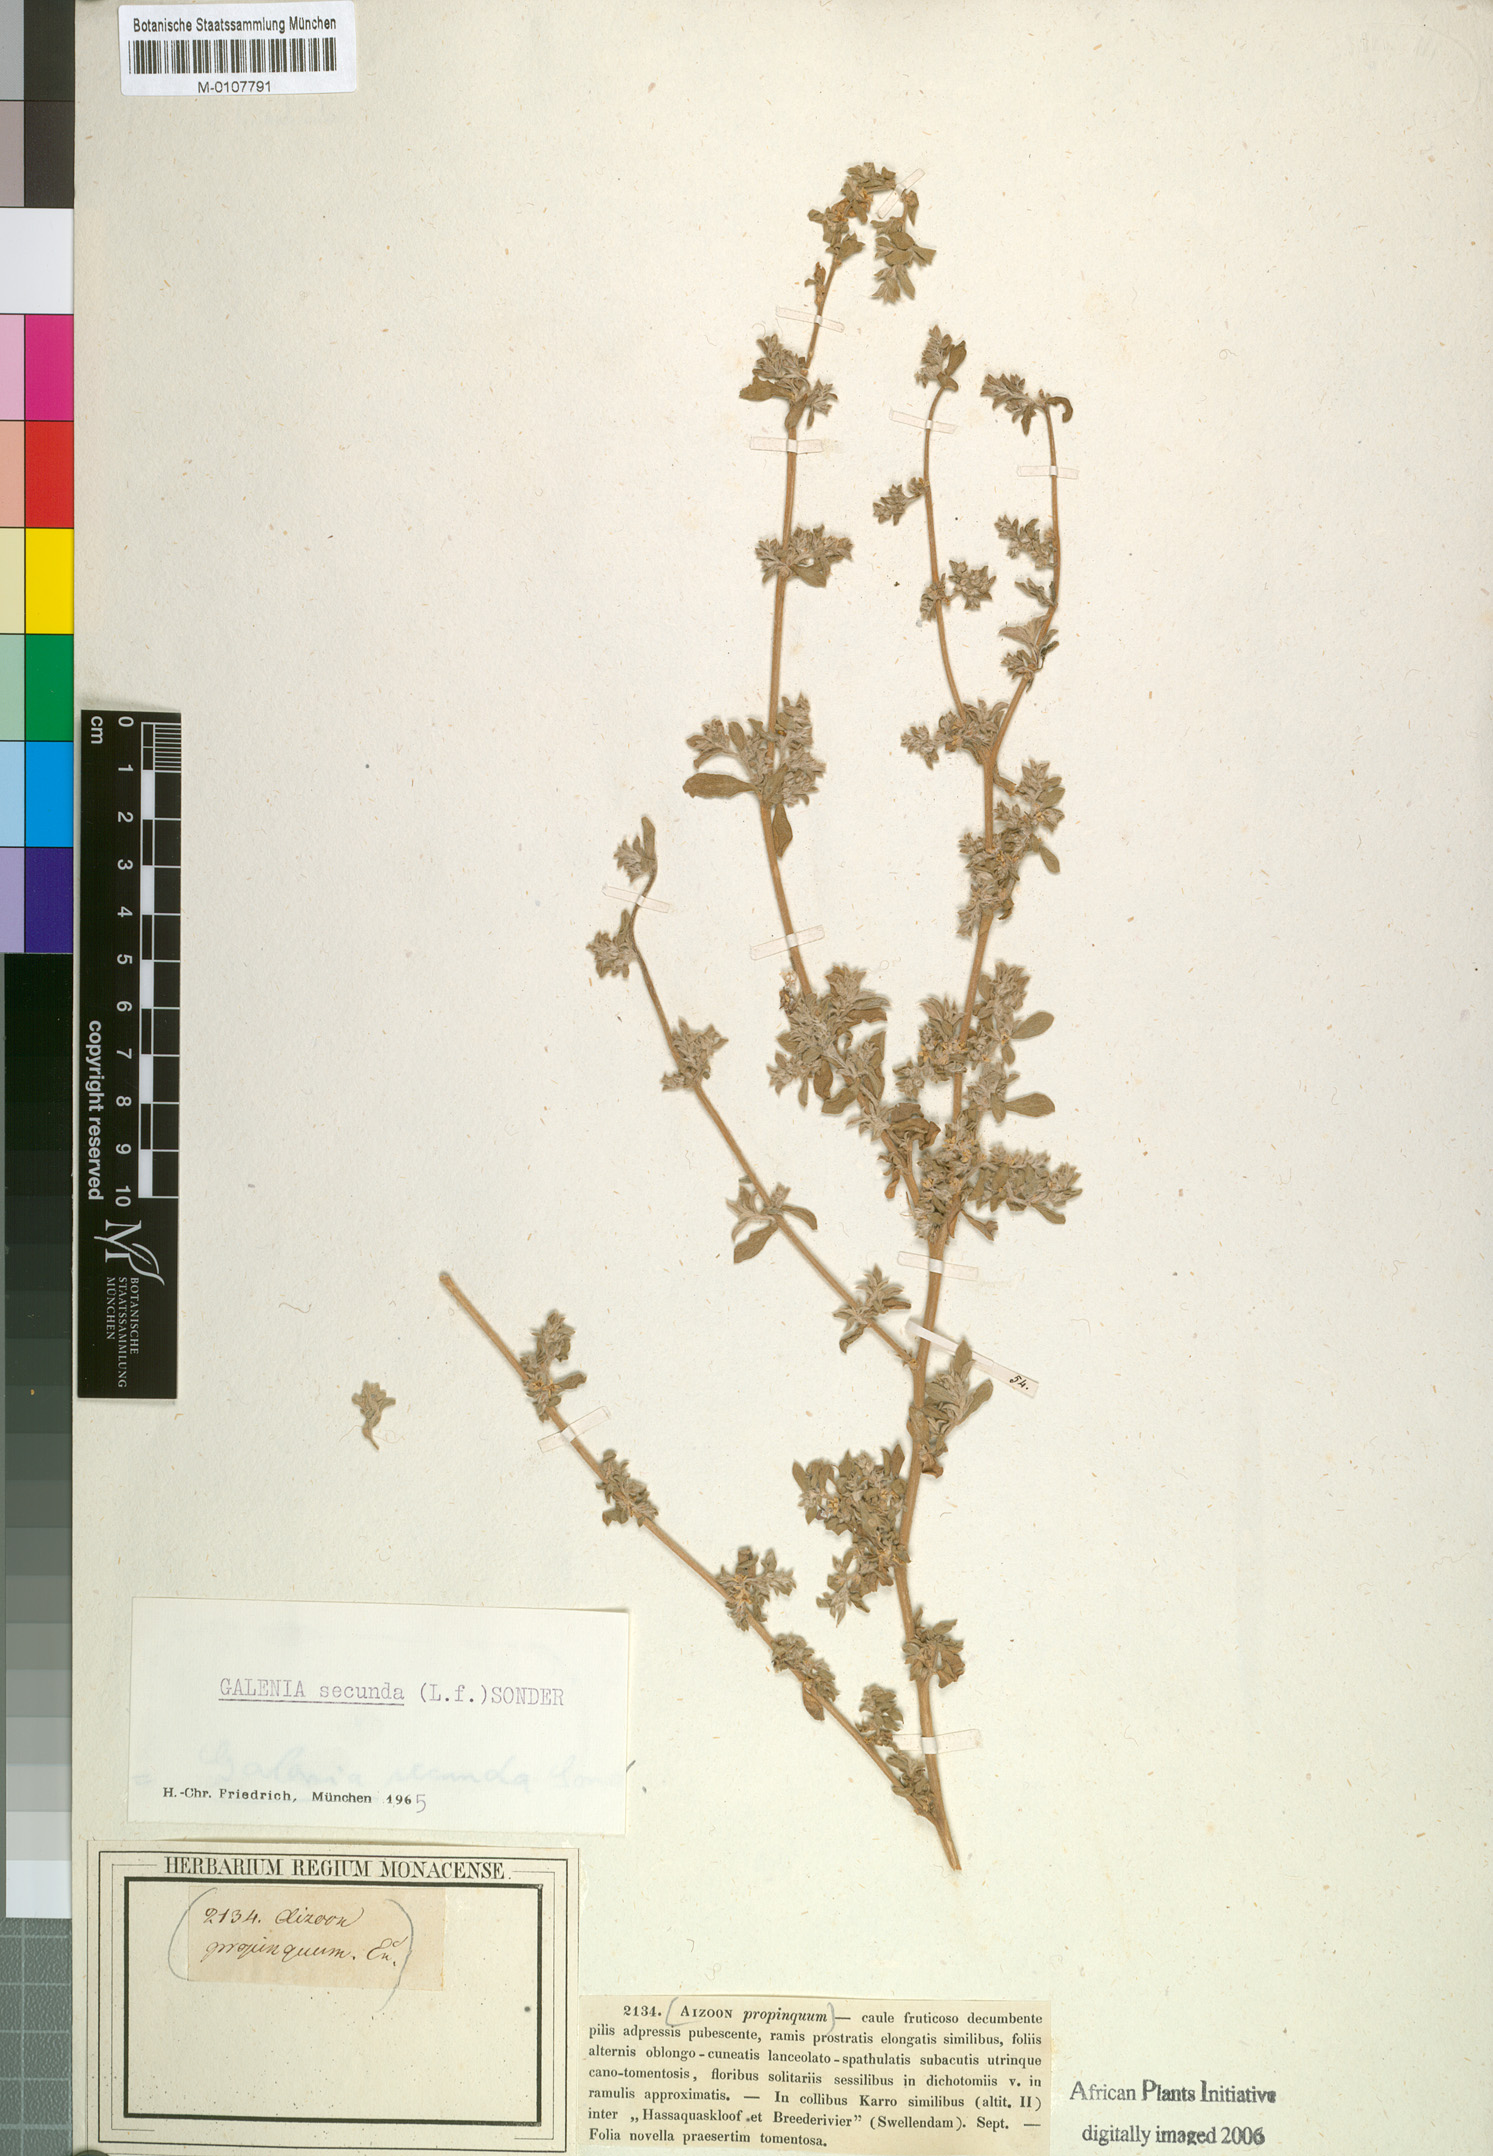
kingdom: Plantae
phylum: Tracheophyta
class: Magnoliopsida
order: Caryophyllales
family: Aizoaceae
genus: Aizoon
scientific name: Aizoon secundum
